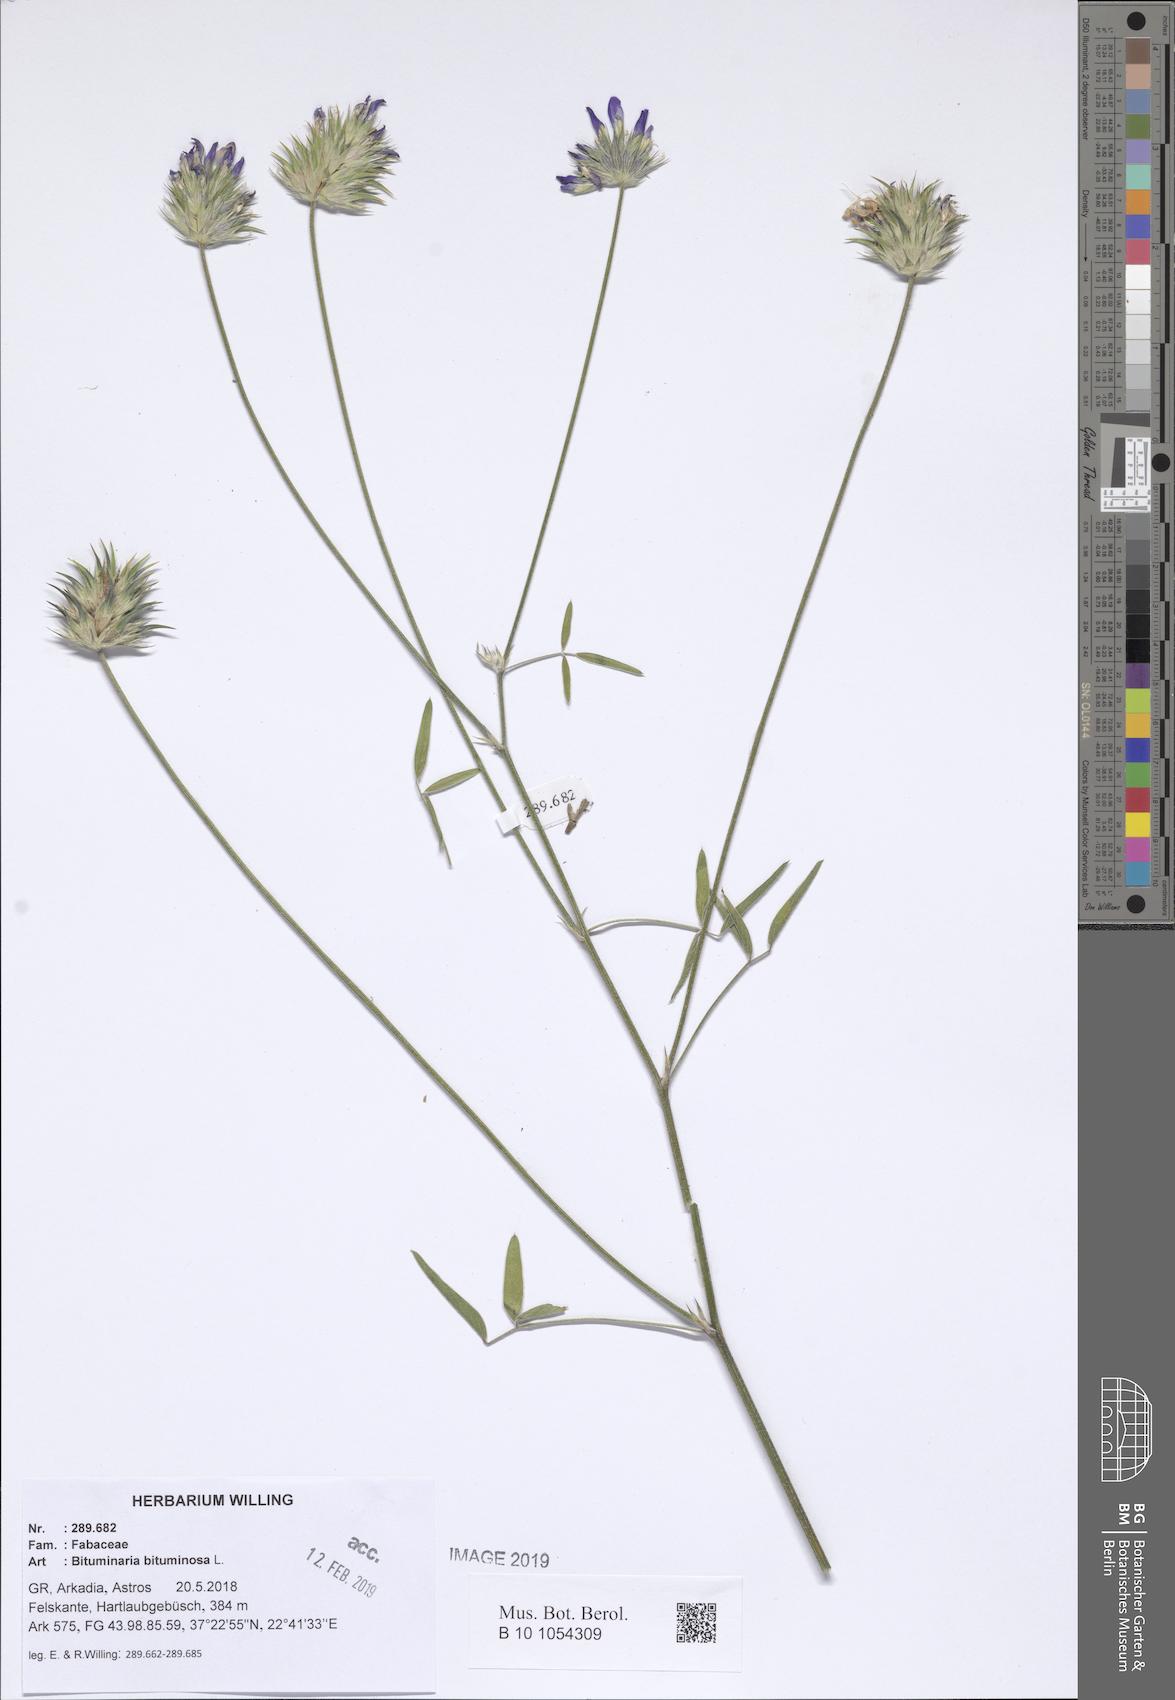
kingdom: Plantae
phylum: Tracheophyta
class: Magnoliopsida
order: Fabales
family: Fabaceae
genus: Bituminaria
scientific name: Bituminaria bituminosa
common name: Arabian pea
